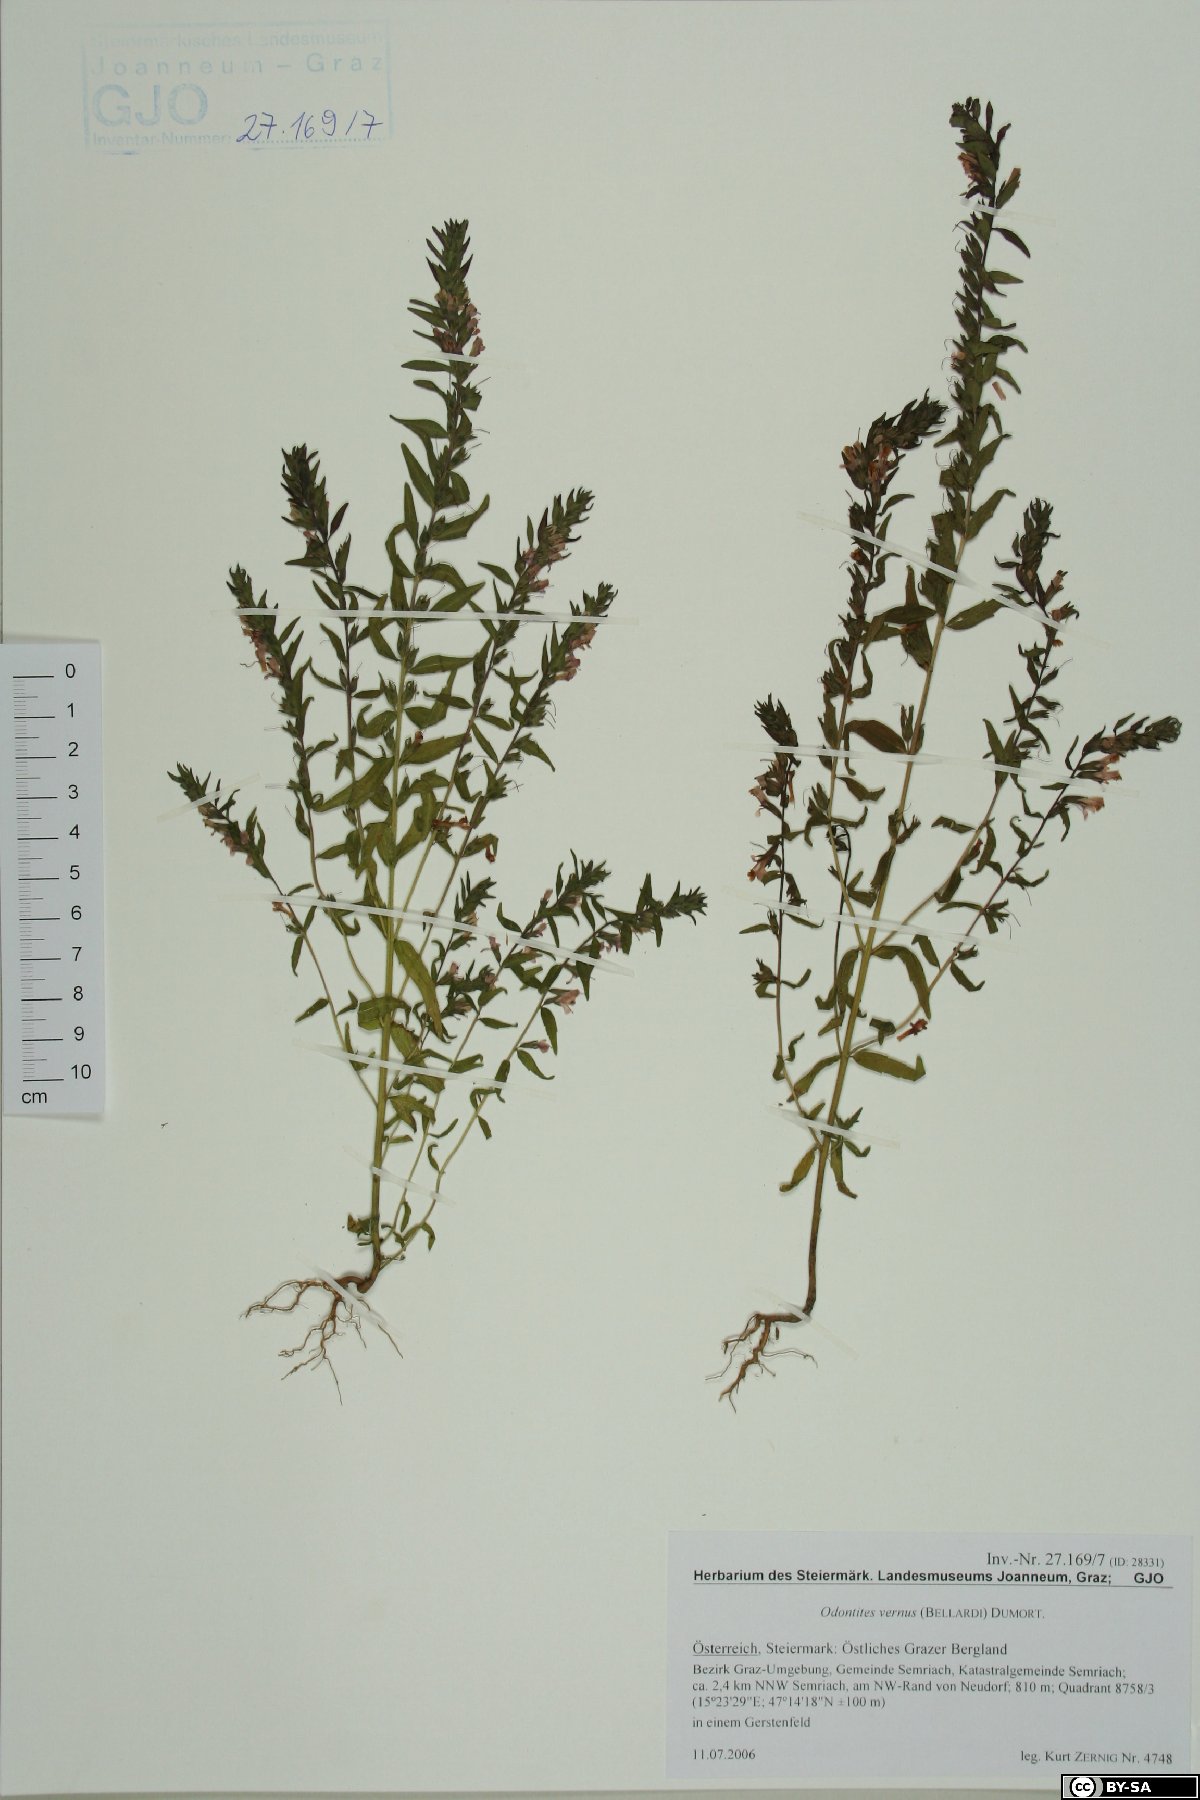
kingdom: Plantae
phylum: Tracheophyta
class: Magnoliopsida
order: Lamiales
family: Orobanchaceae
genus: Odontites
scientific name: Odontites vernus
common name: Red bartsia
